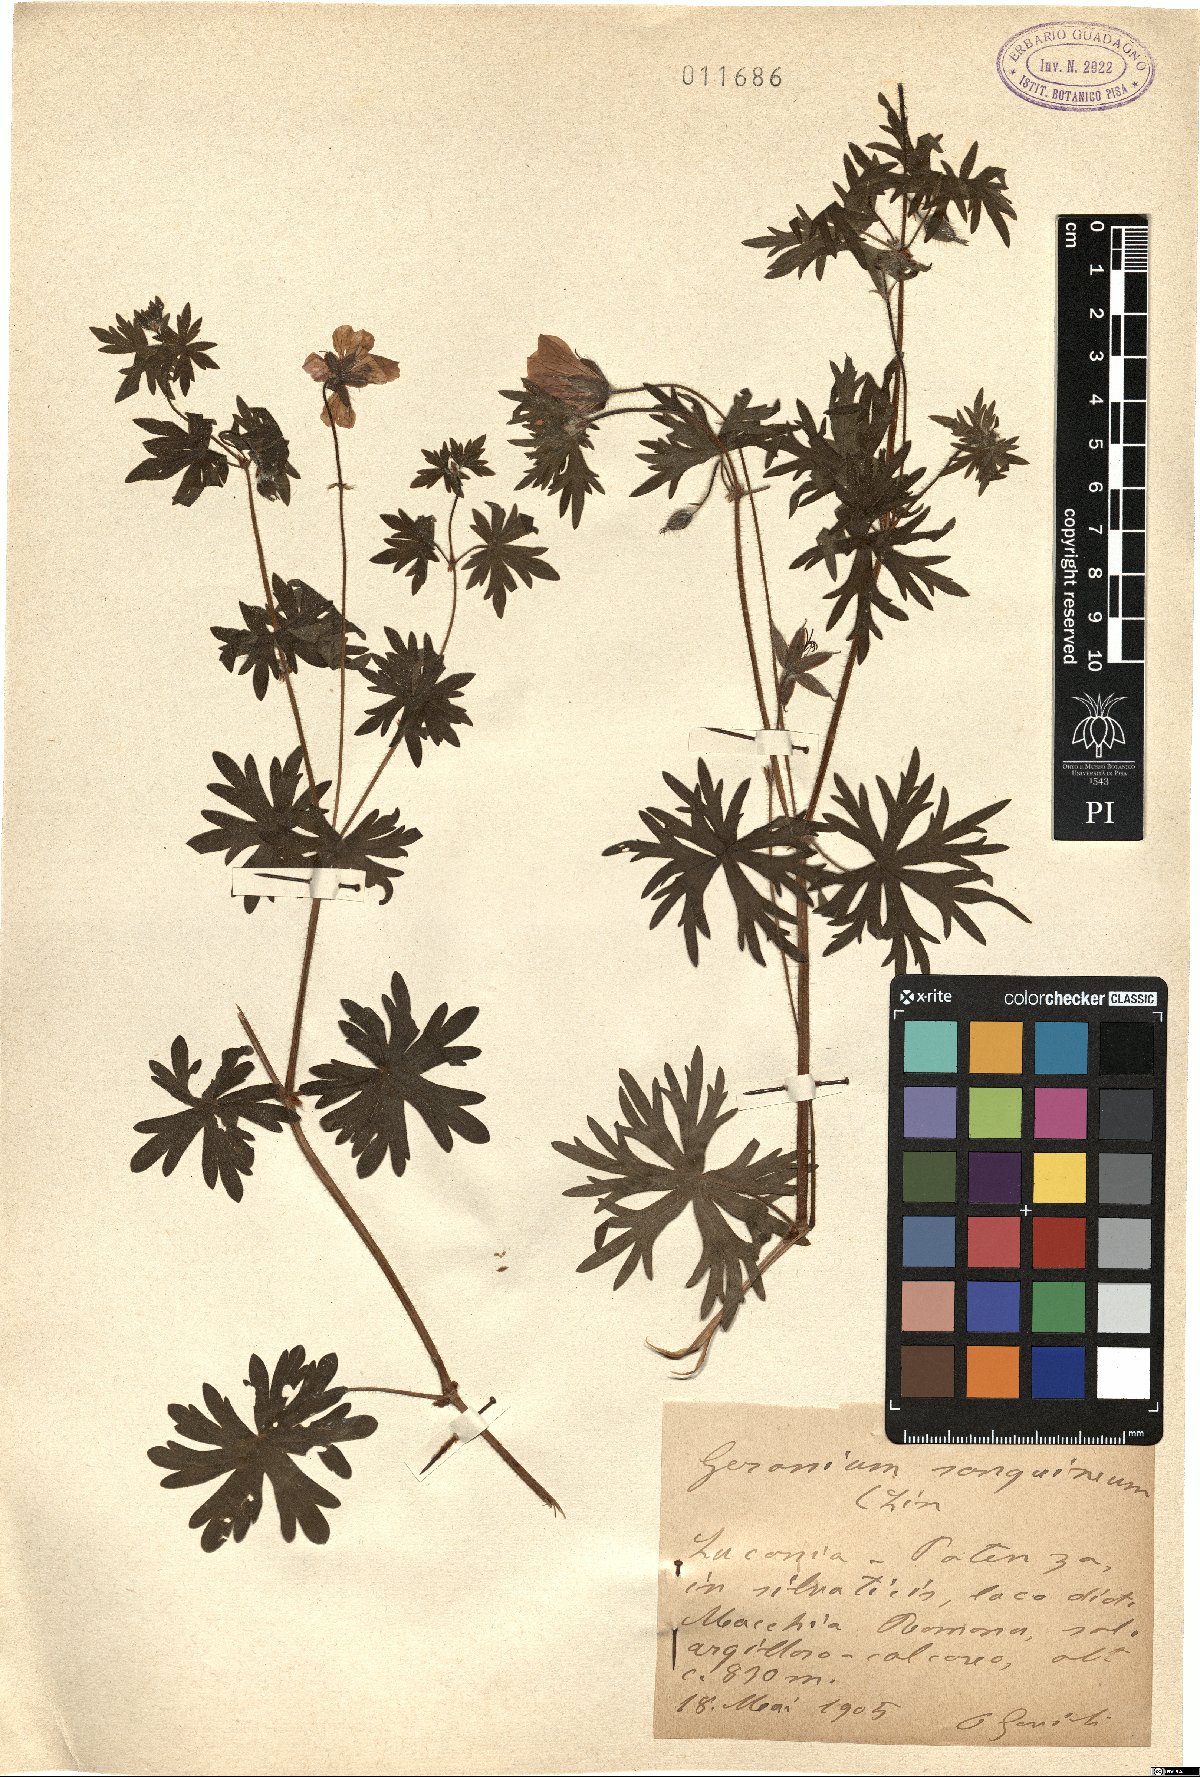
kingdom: Plantae
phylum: Tracheophyta
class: Magnoliopsida
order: Geraniales
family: Geraniaceae
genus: Geranium
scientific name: Geranium sanguineum
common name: Bloody crane's-bill
